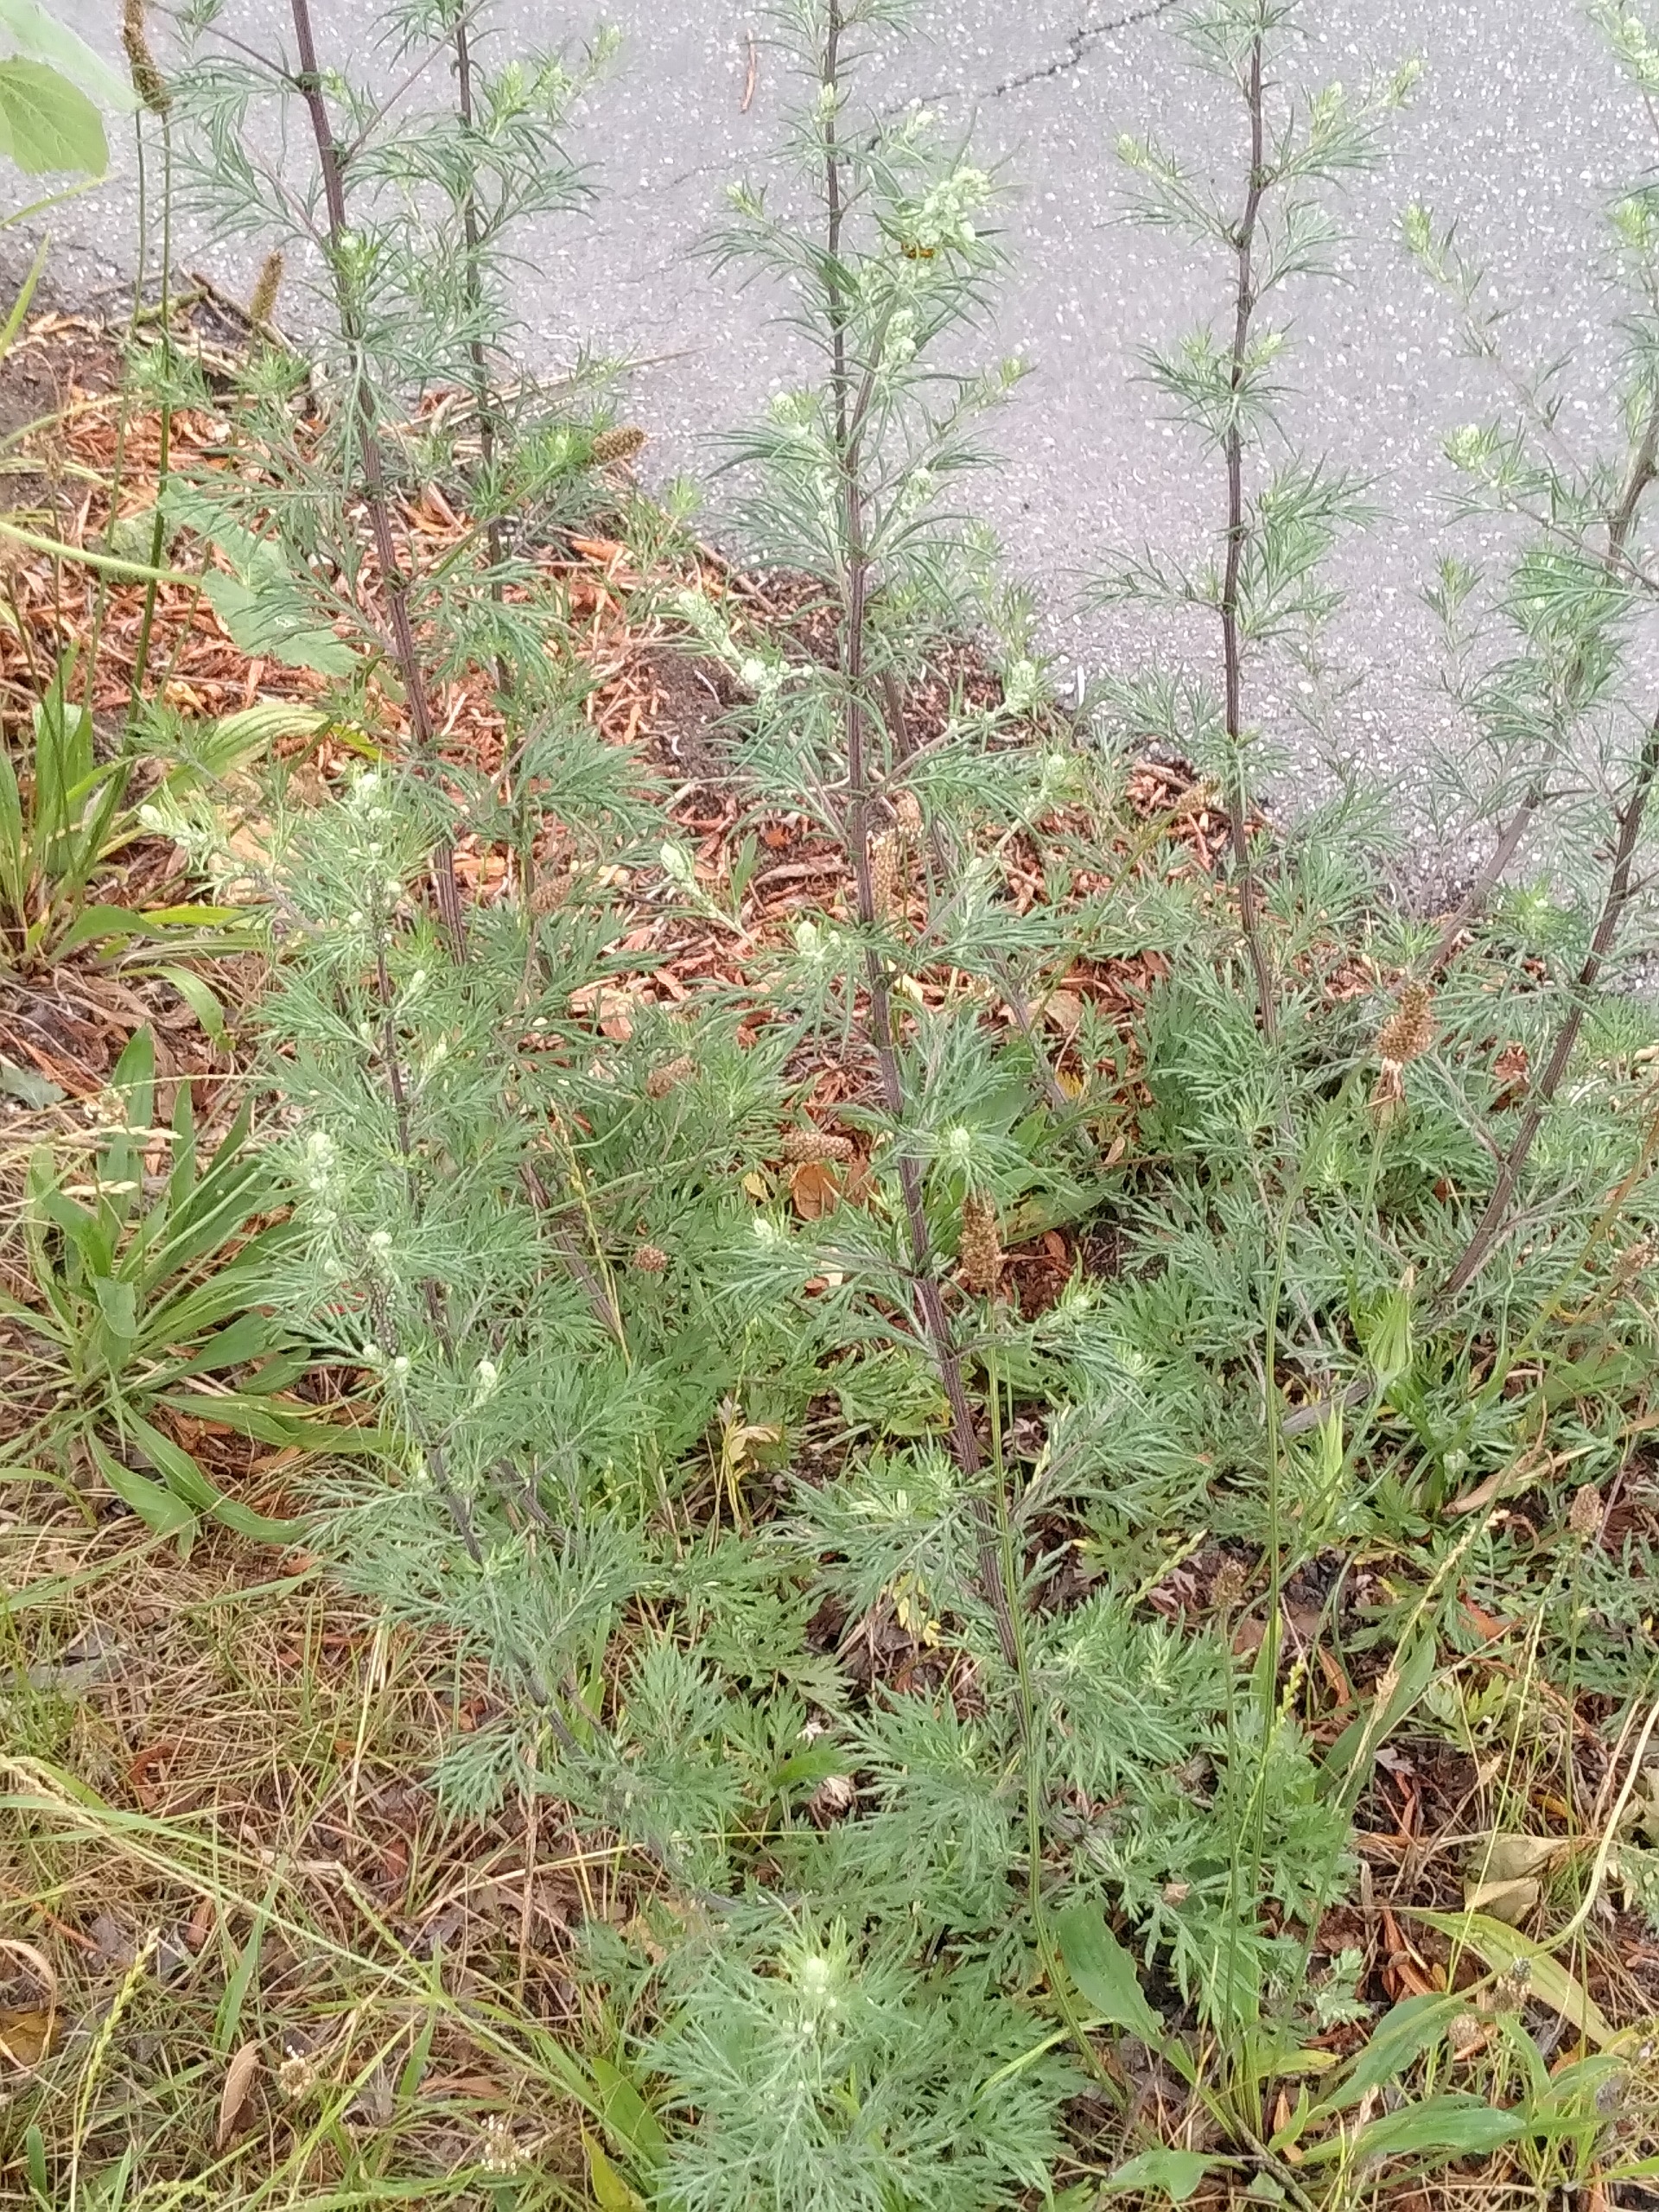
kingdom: Plantae
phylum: Tracheophyta
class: Magnoliopsida
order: Asterales
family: Asteraceae
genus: Artemisia
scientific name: Artemisia vulgaris
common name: Grå-bynke
